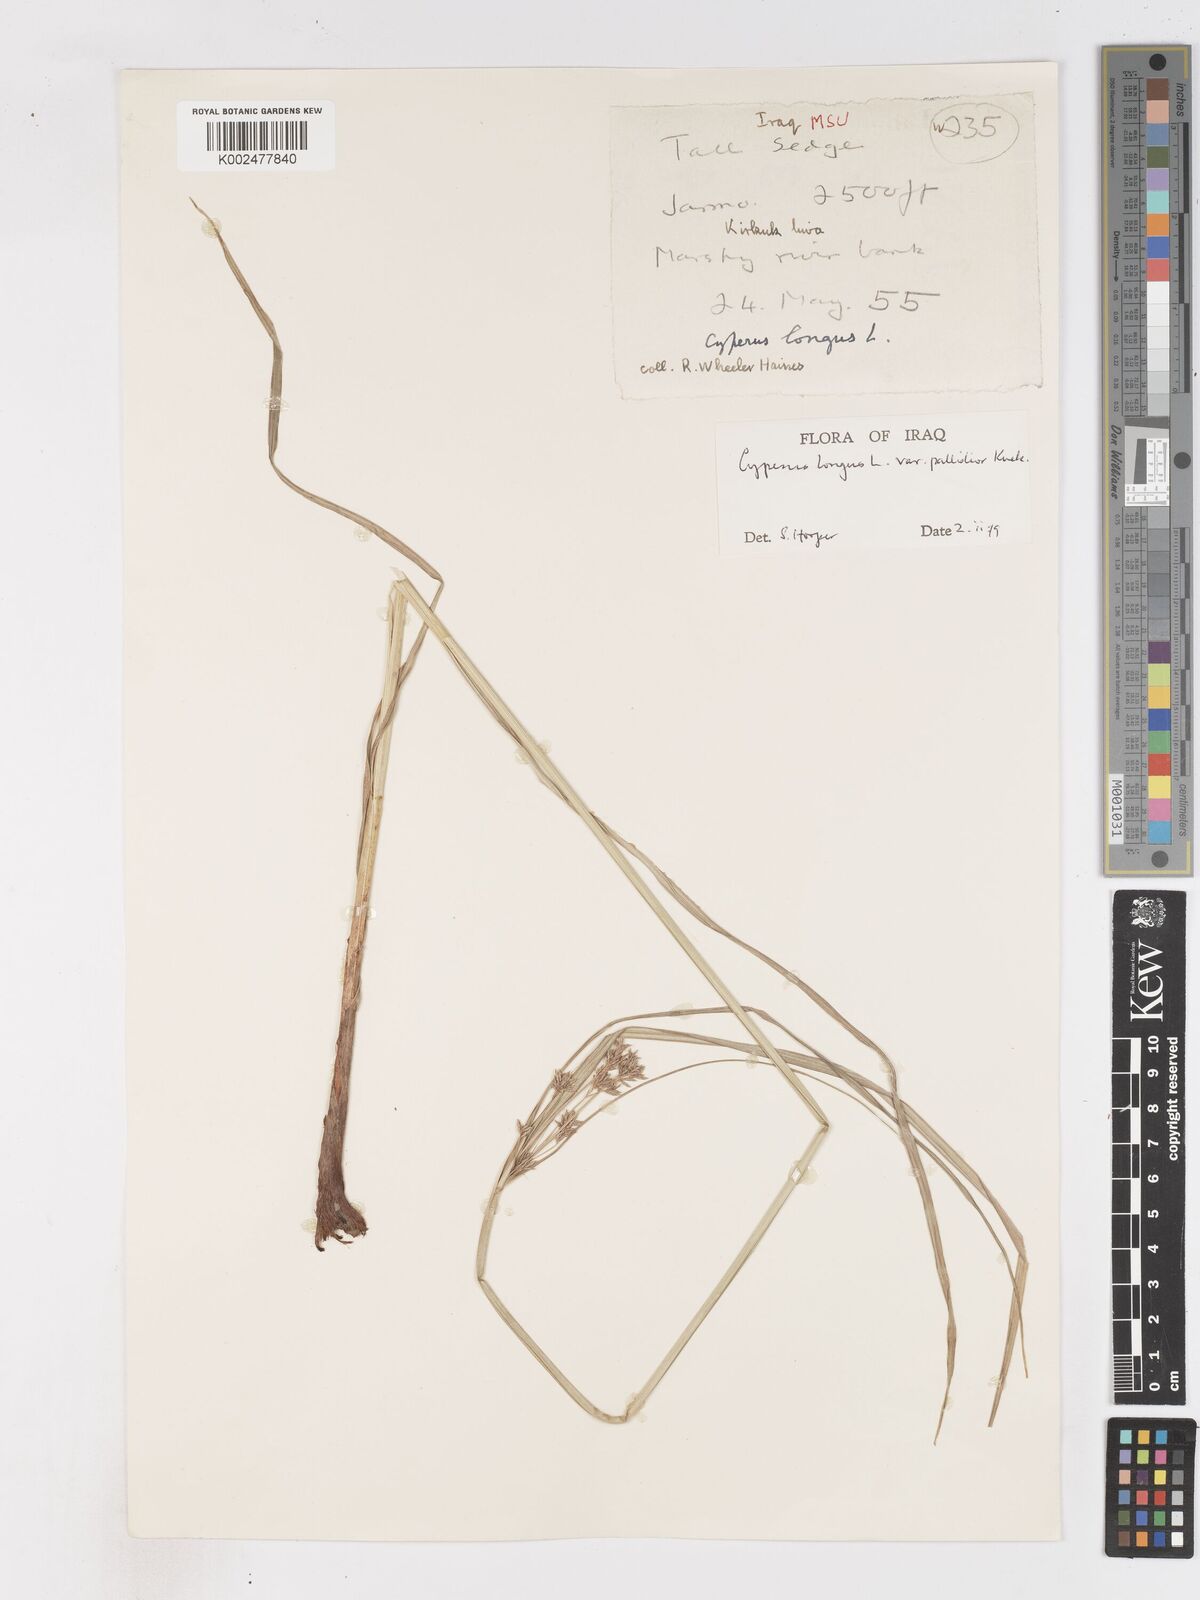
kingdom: Plantae
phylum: Tracheophyta
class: Liliopsida
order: Poales
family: Cyperaceae
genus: Cyperus
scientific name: Cyperus longus
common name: Galingale
